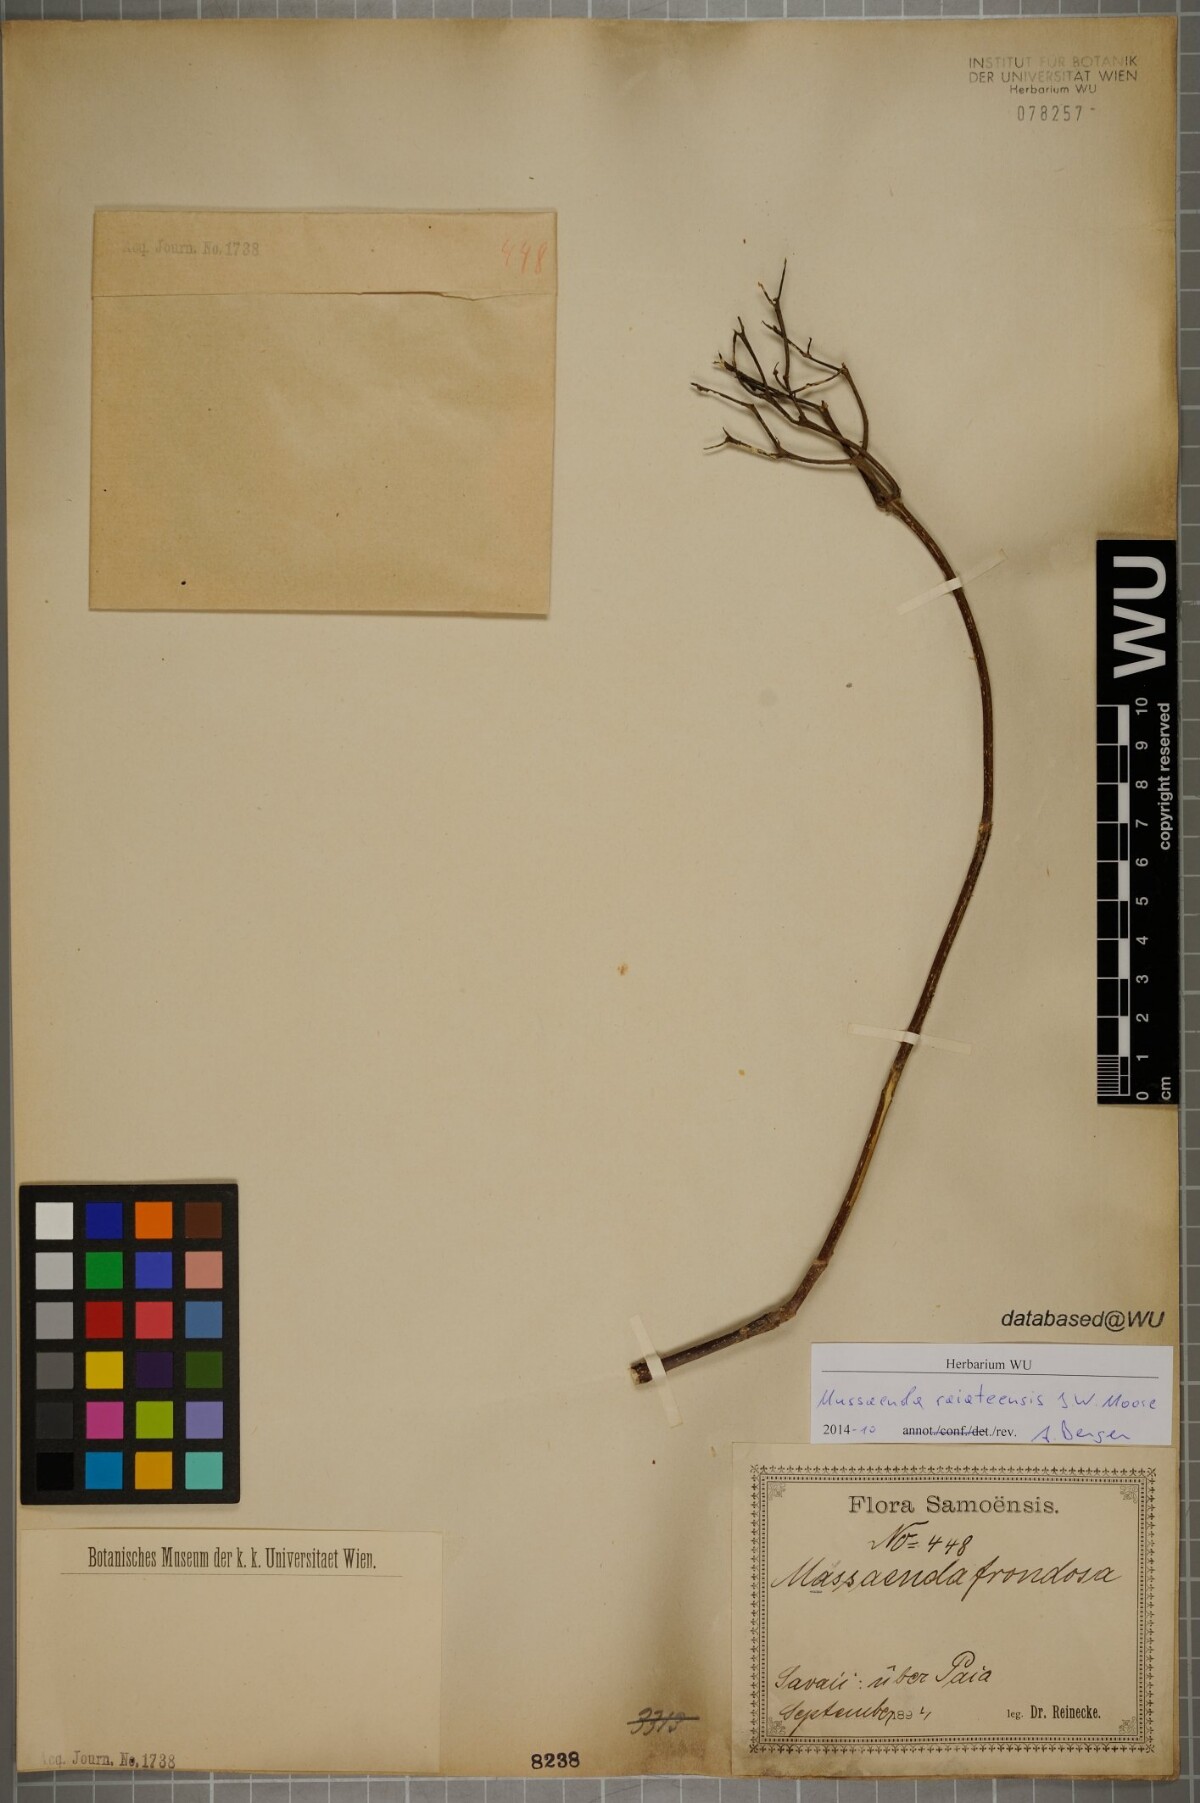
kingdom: Plantae
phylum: Tracheophyta
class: Magnoliopsida
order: Gentianales
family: Rubiaceae
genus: Mussaenda
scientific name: Mussaenda raiateensis
